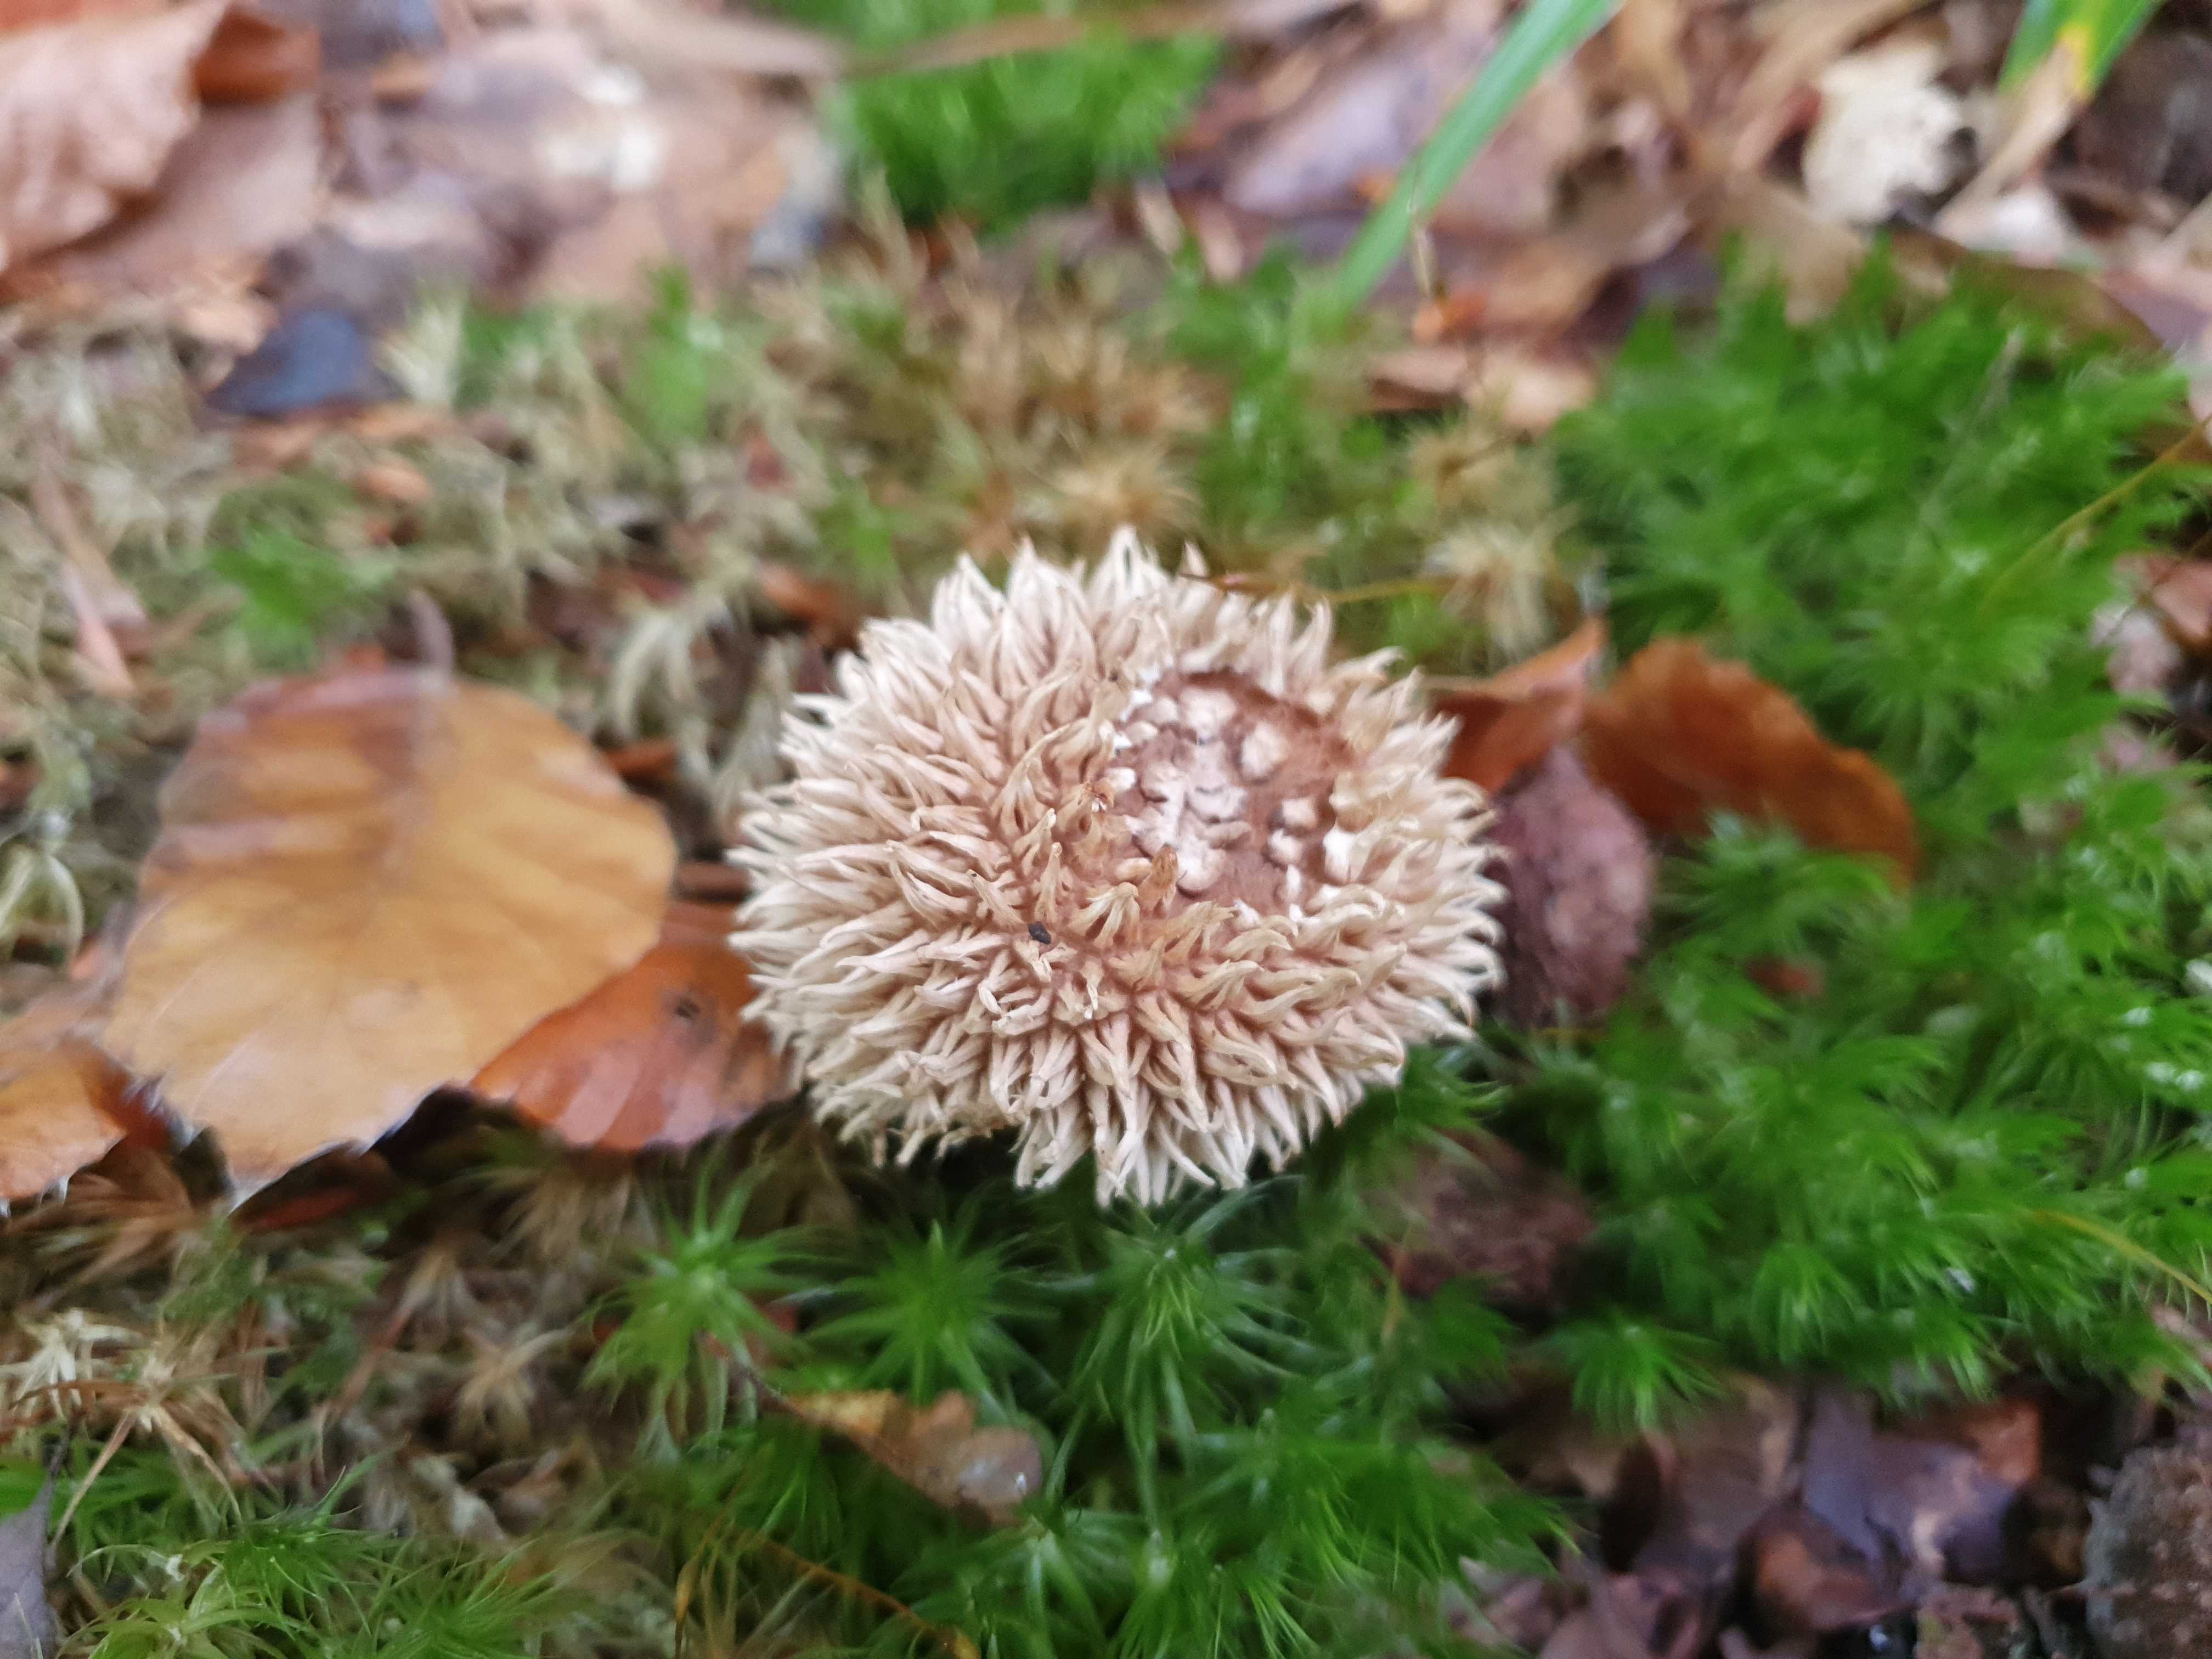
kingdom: Fungi
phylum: Basidiomycota
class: Agaricomycetes
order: Agaricales
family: Lycoperdaceae
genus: Lycoperdon
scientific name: Lycoperdon echinatum
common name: pindsvine-støvbold
